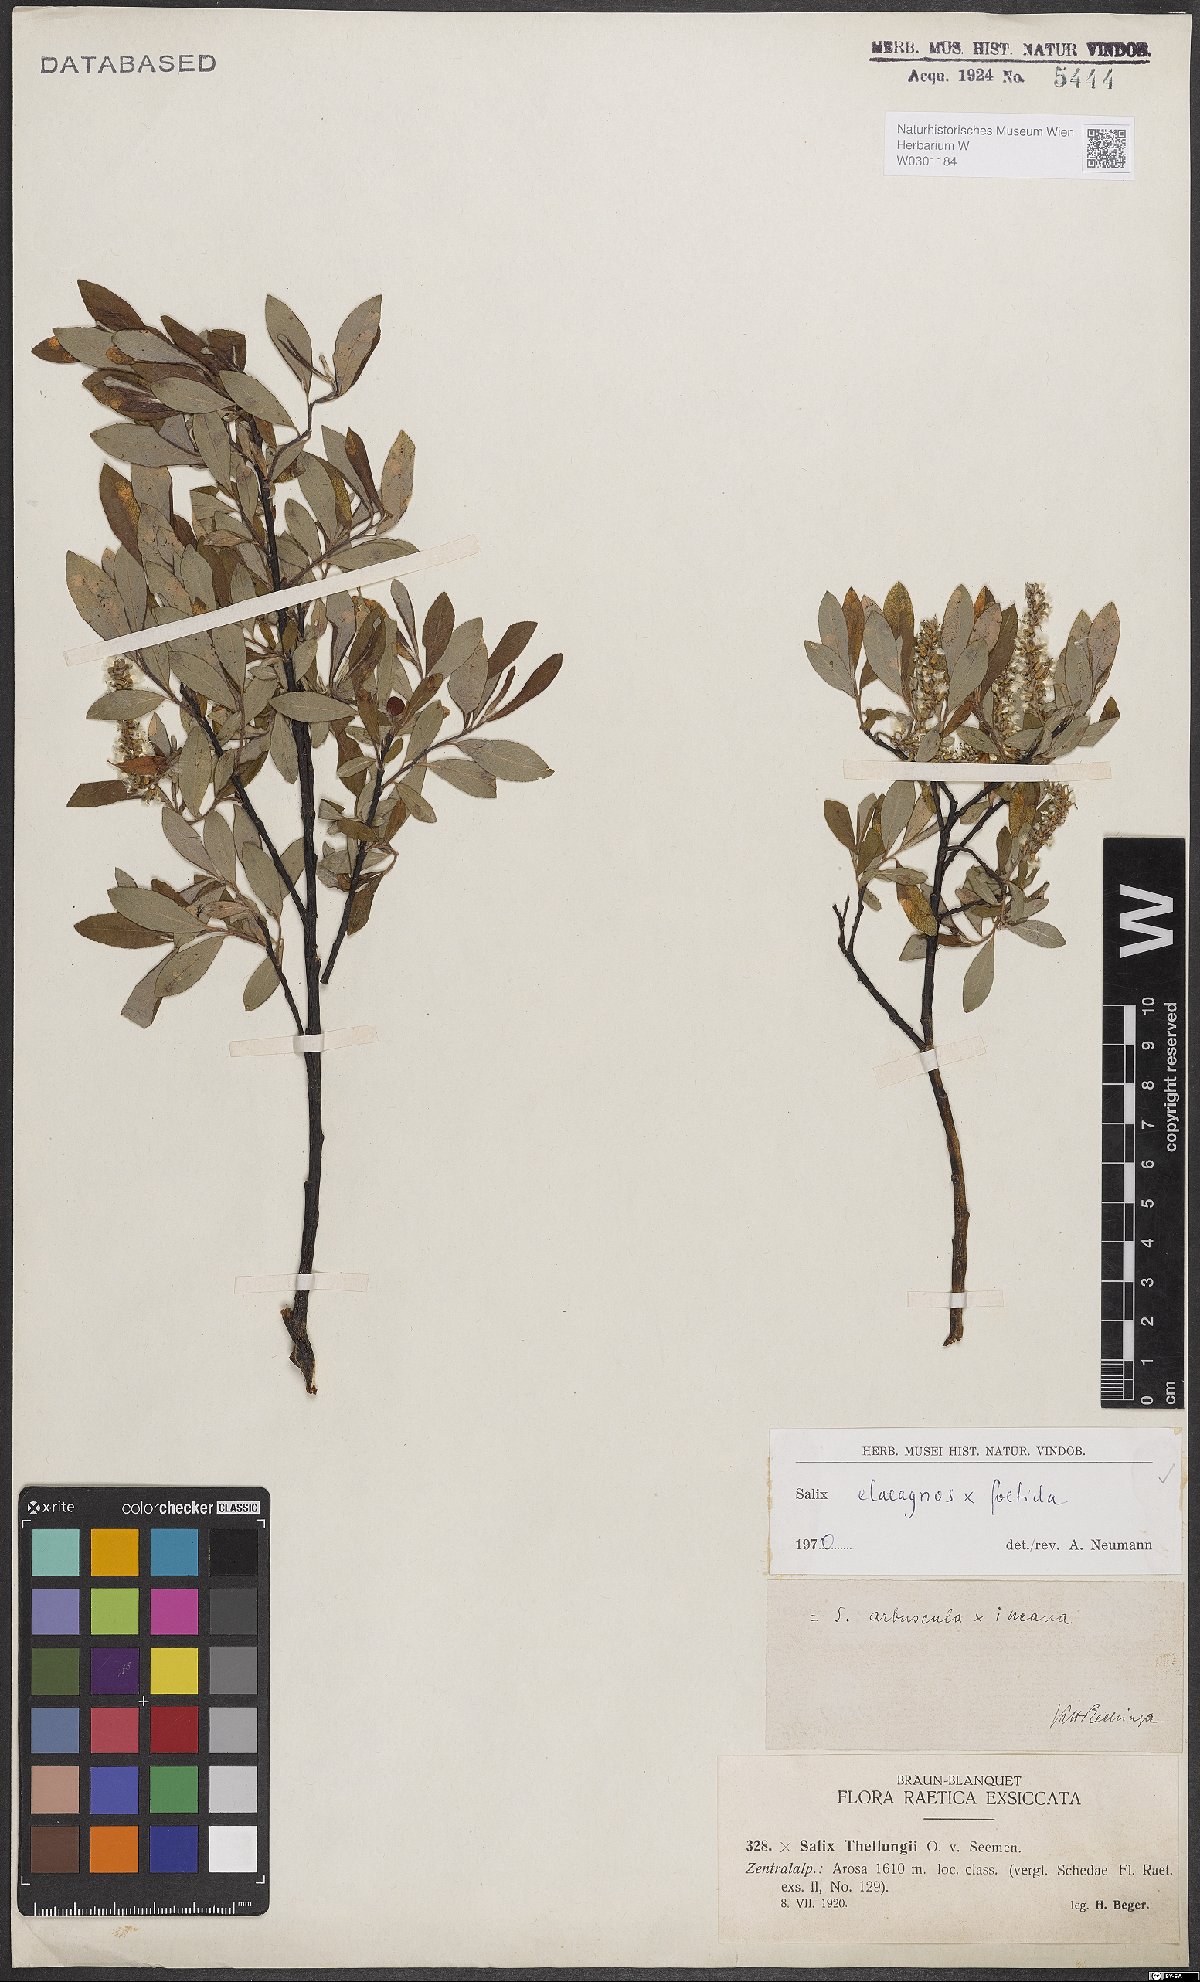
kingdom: Plantae
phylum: Tracheophyta
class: Magnoliopsida
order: Malpighiales
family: Salicaceae
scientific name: Salicaceae
